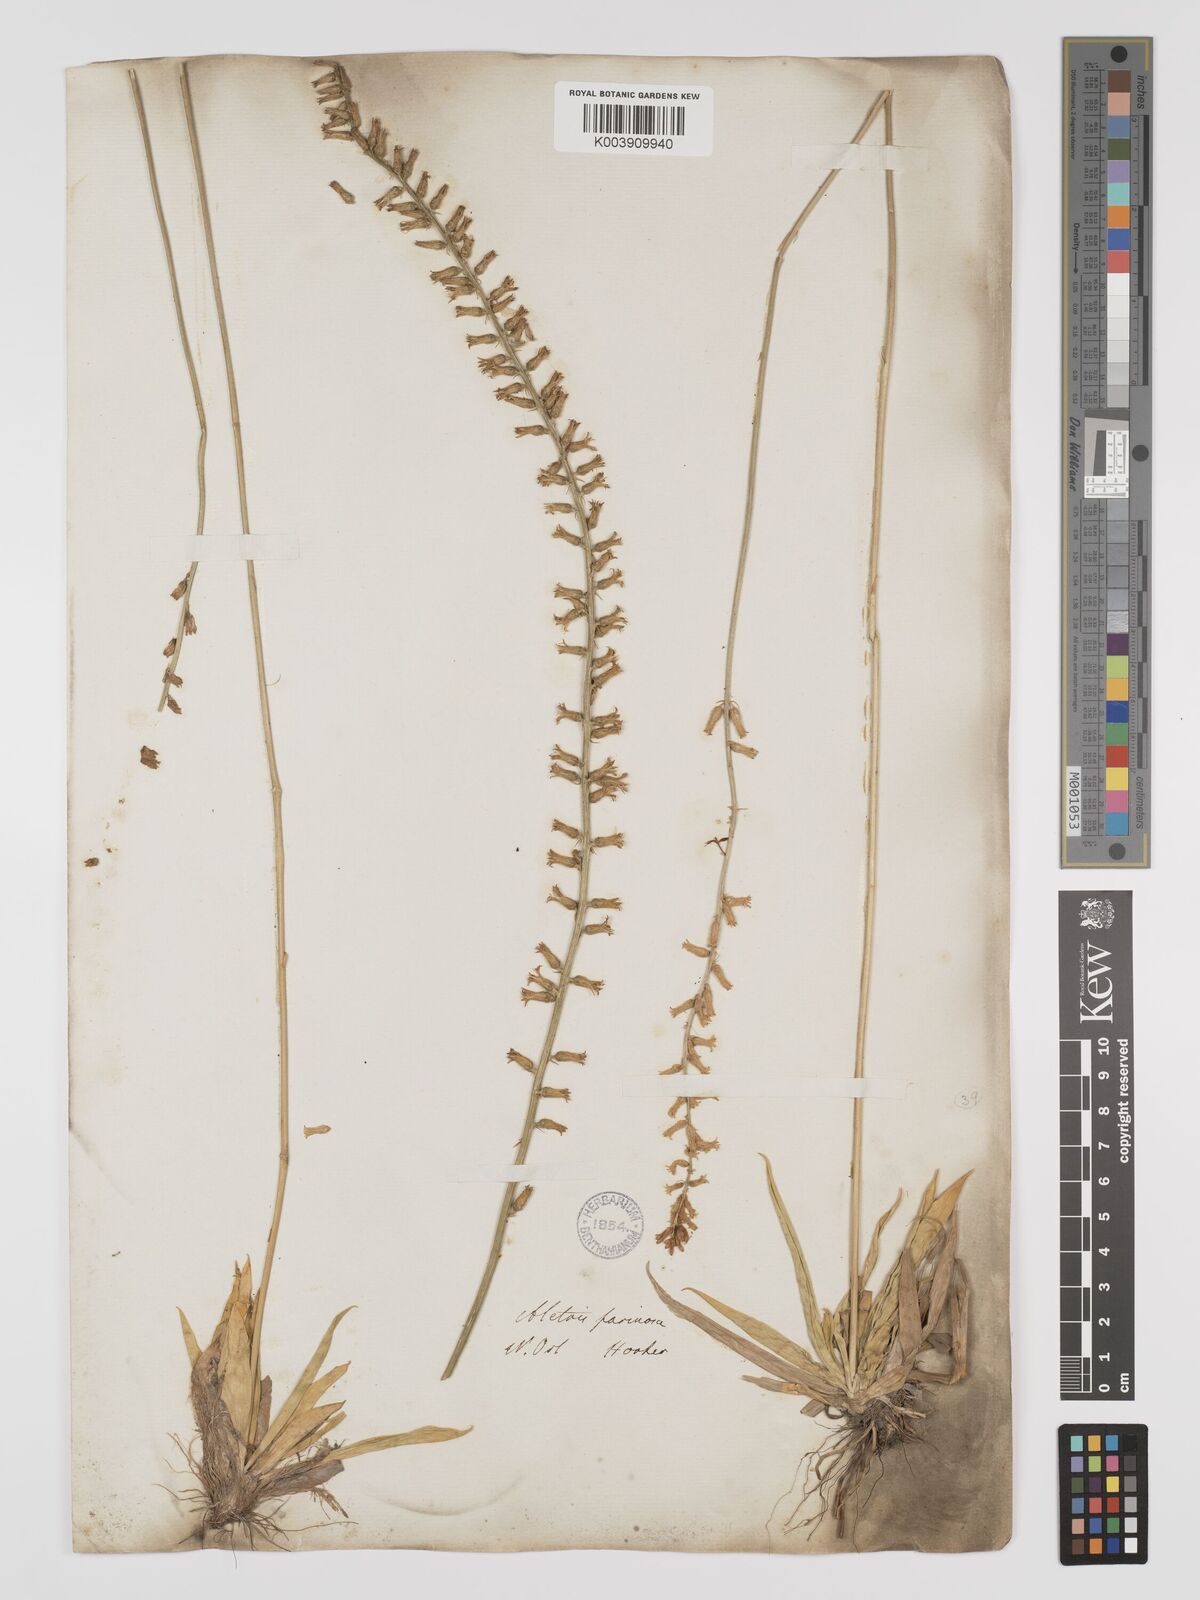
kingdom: Plantae
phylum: Tracheophyta
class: Liliopsida
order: Dioscoreales
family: Nartheciaceae
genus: Aletris
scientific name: Aletris farinosa
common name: Colicroot
